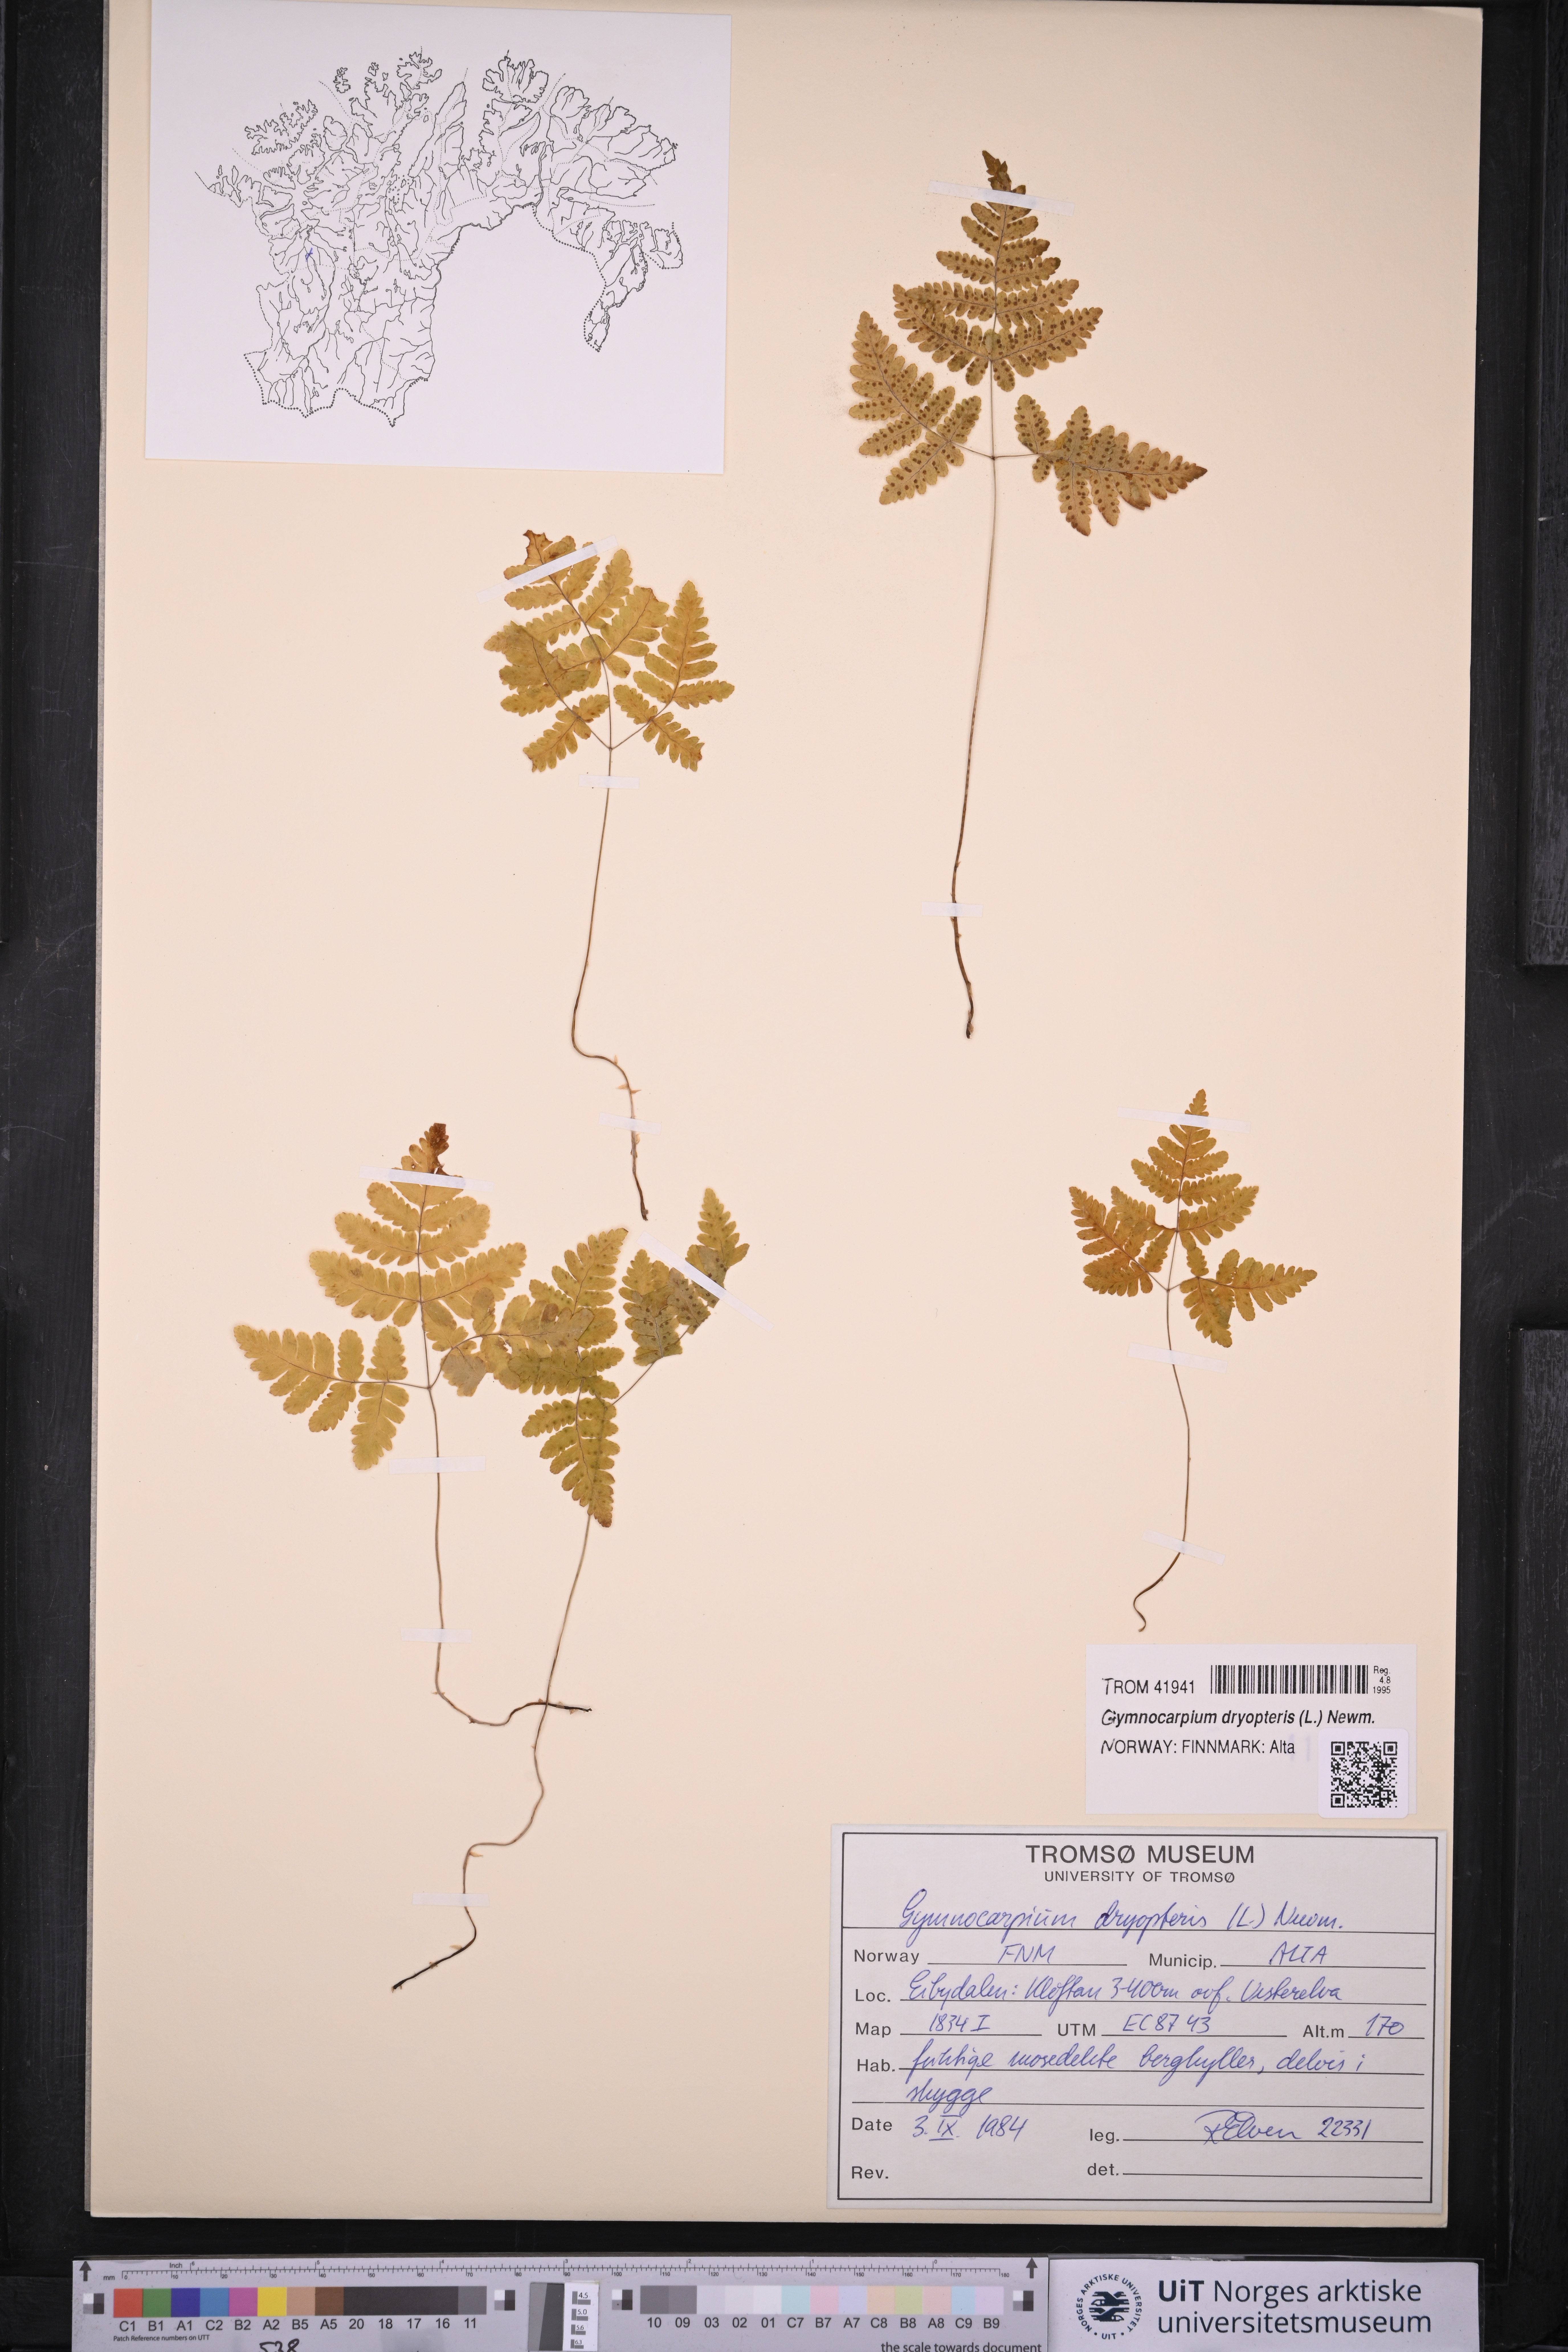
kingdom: Plantae
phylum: Tracheophyta
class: Polypodiopsida
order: Polypodiales
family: Cystopteridaceae
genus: Gymnocarpium
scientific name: Gymnocarpium dryopteris
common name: Oak fern
